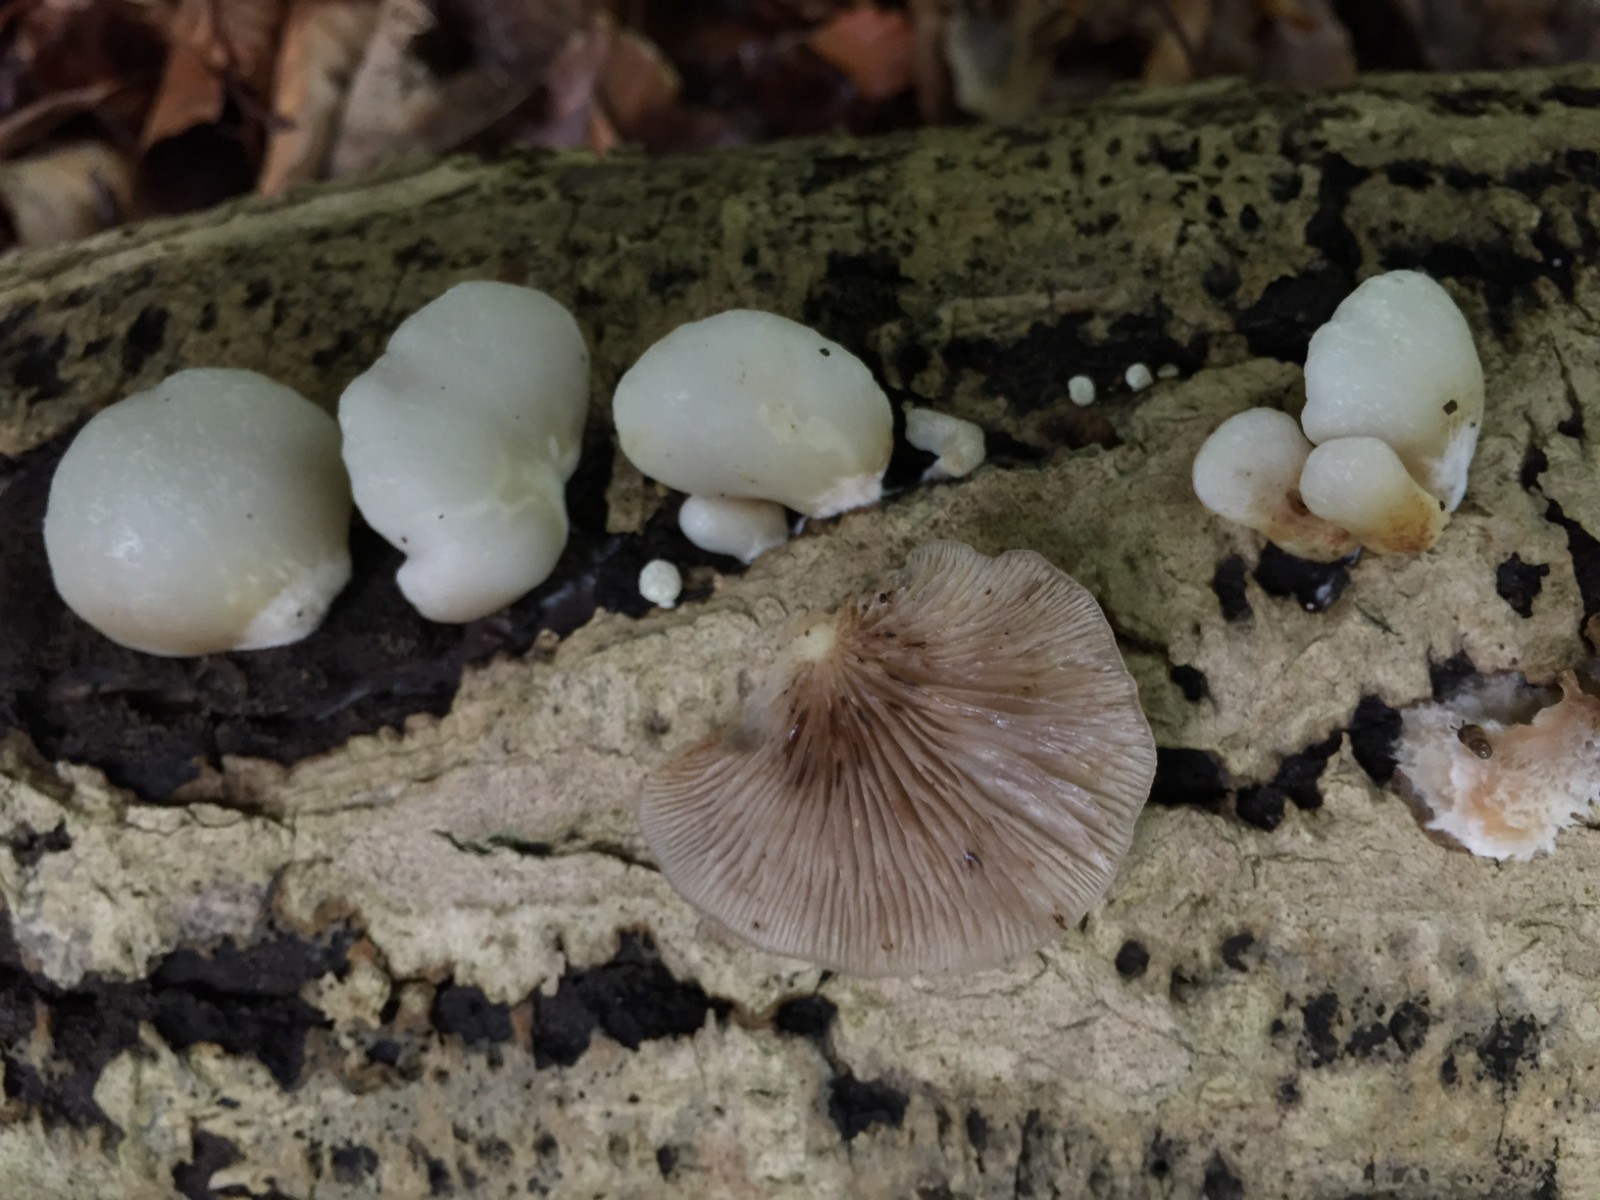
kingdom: Fungi
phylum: Basidiomycota
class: Agaricomycetes
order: Agaricales
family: Crepidotaceae
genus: Crepidotus
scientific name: Crepidotus mollis
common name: blød muslingesvamp
